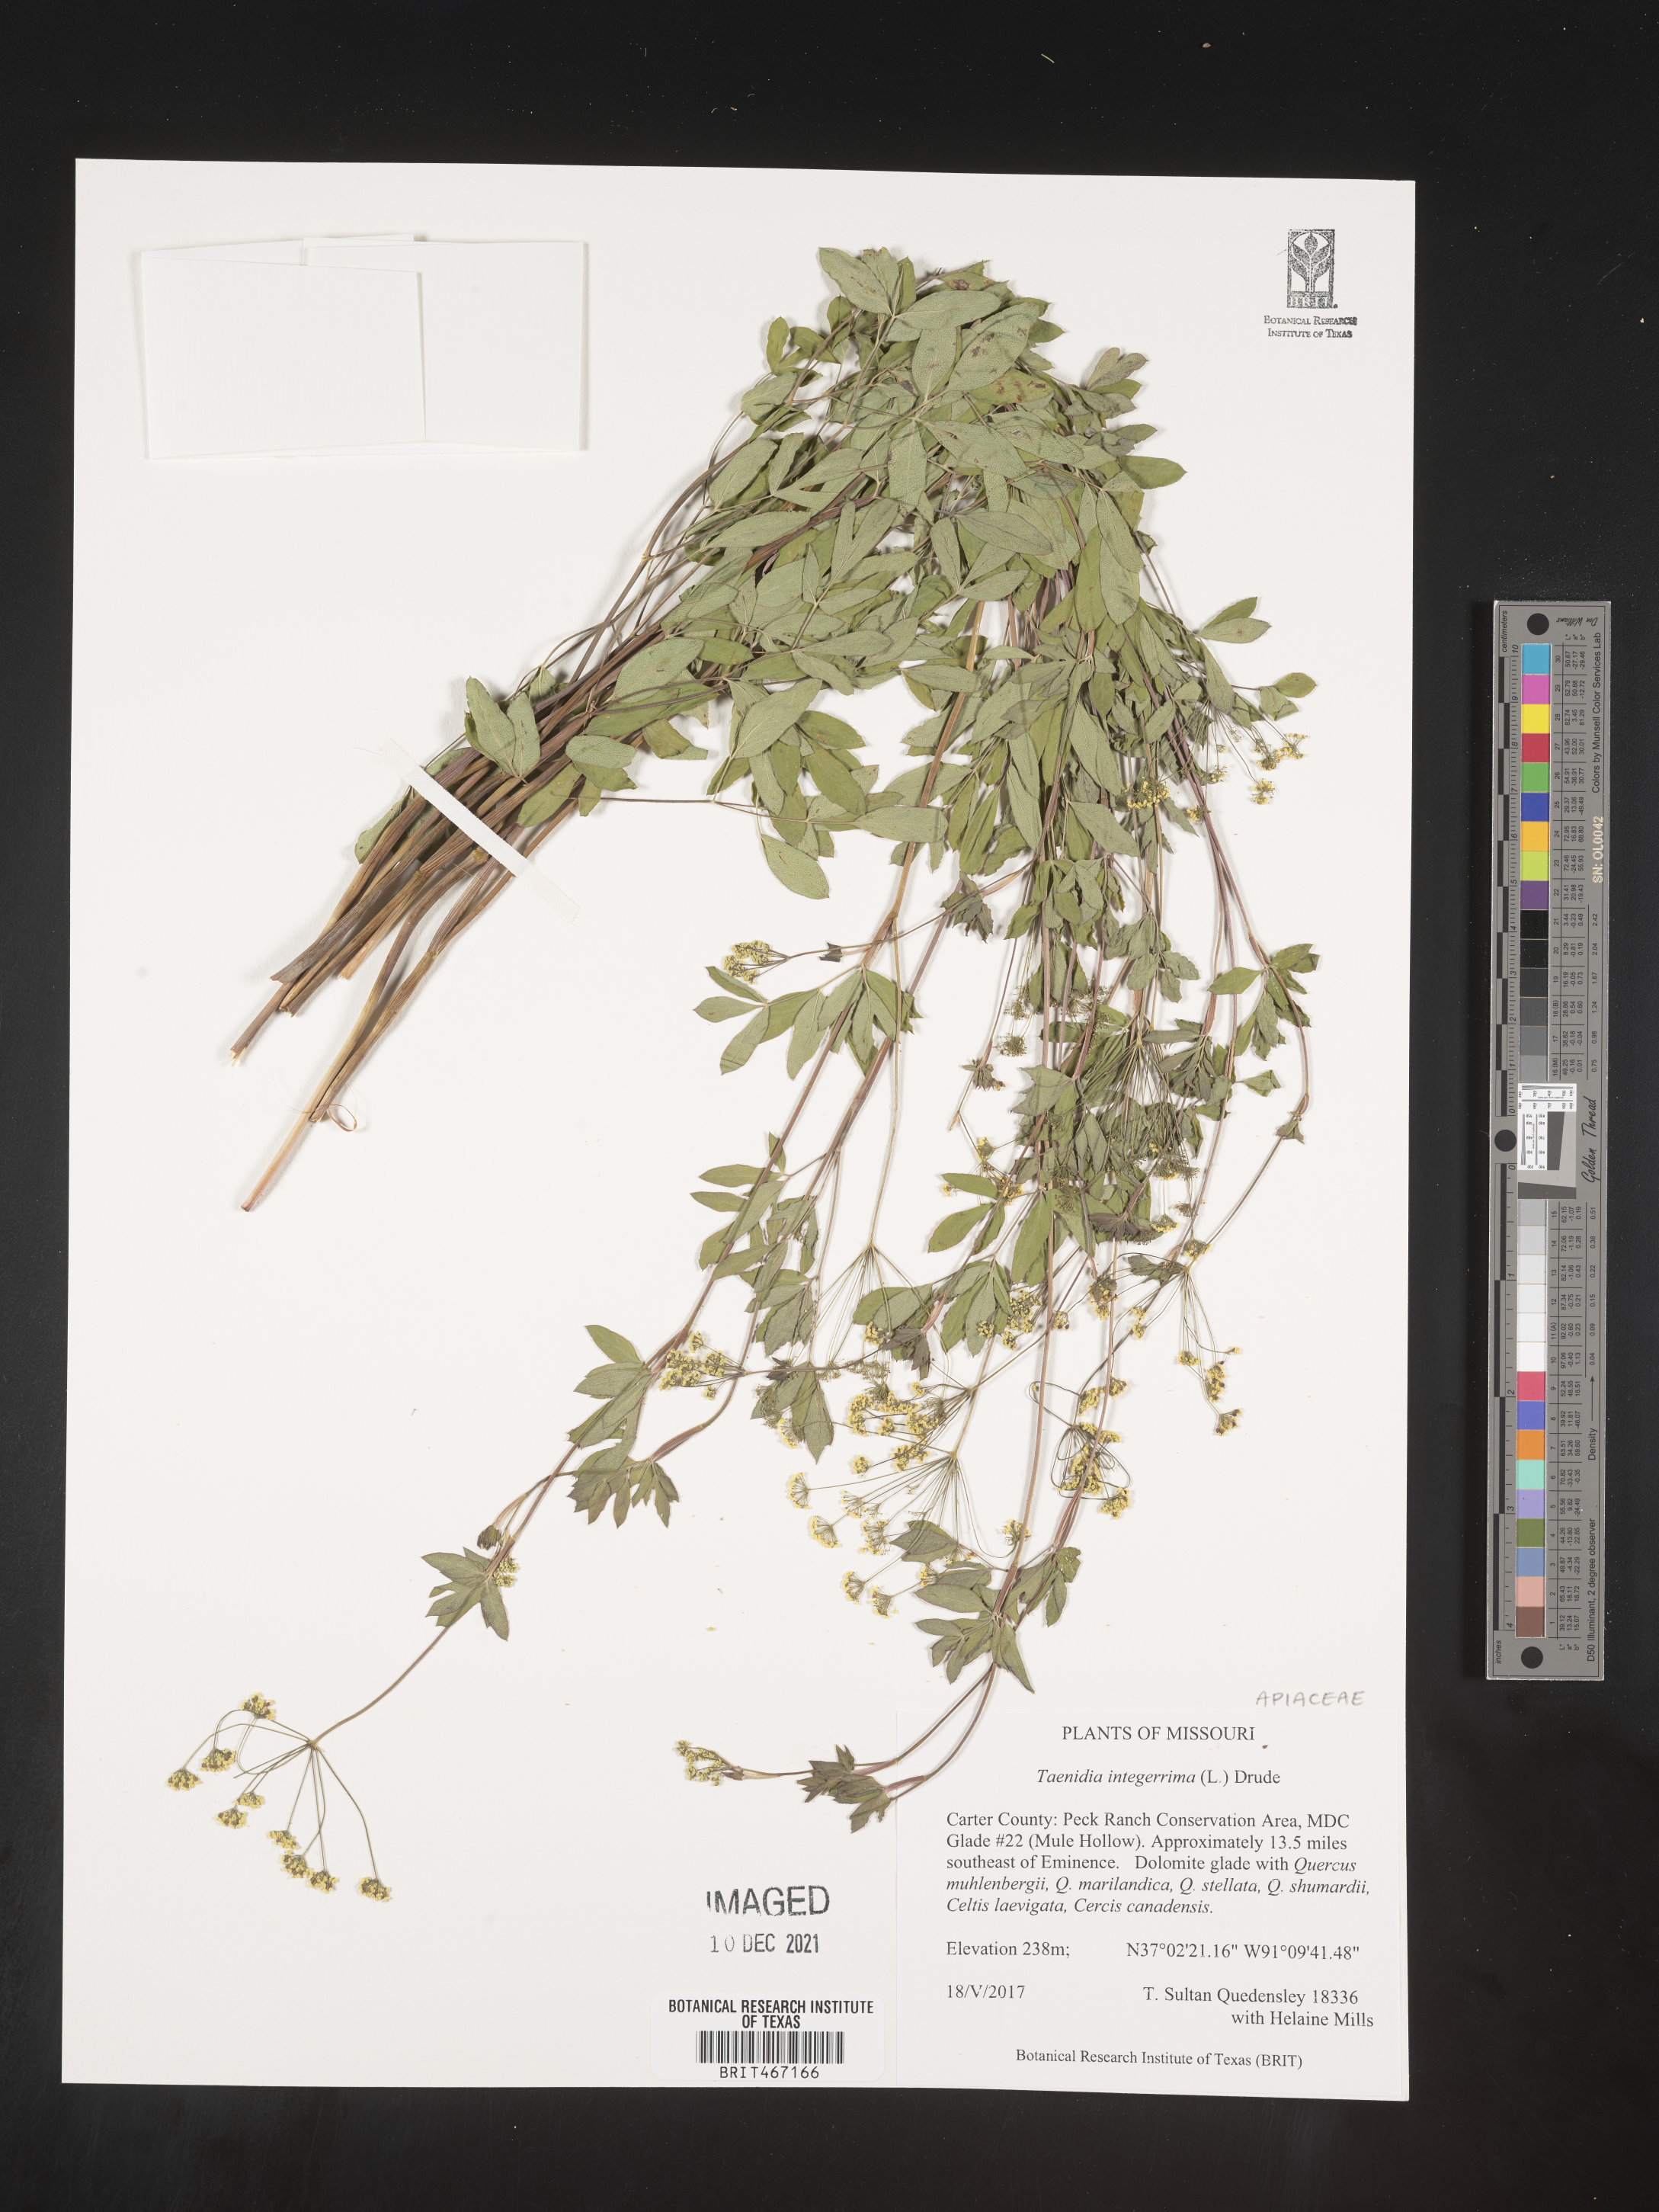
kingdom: Plantae
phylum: Tracheophyta
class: Magnoliopsida
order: Apiales
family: Apiaceae
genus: Taenidia
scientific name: Taenidia
